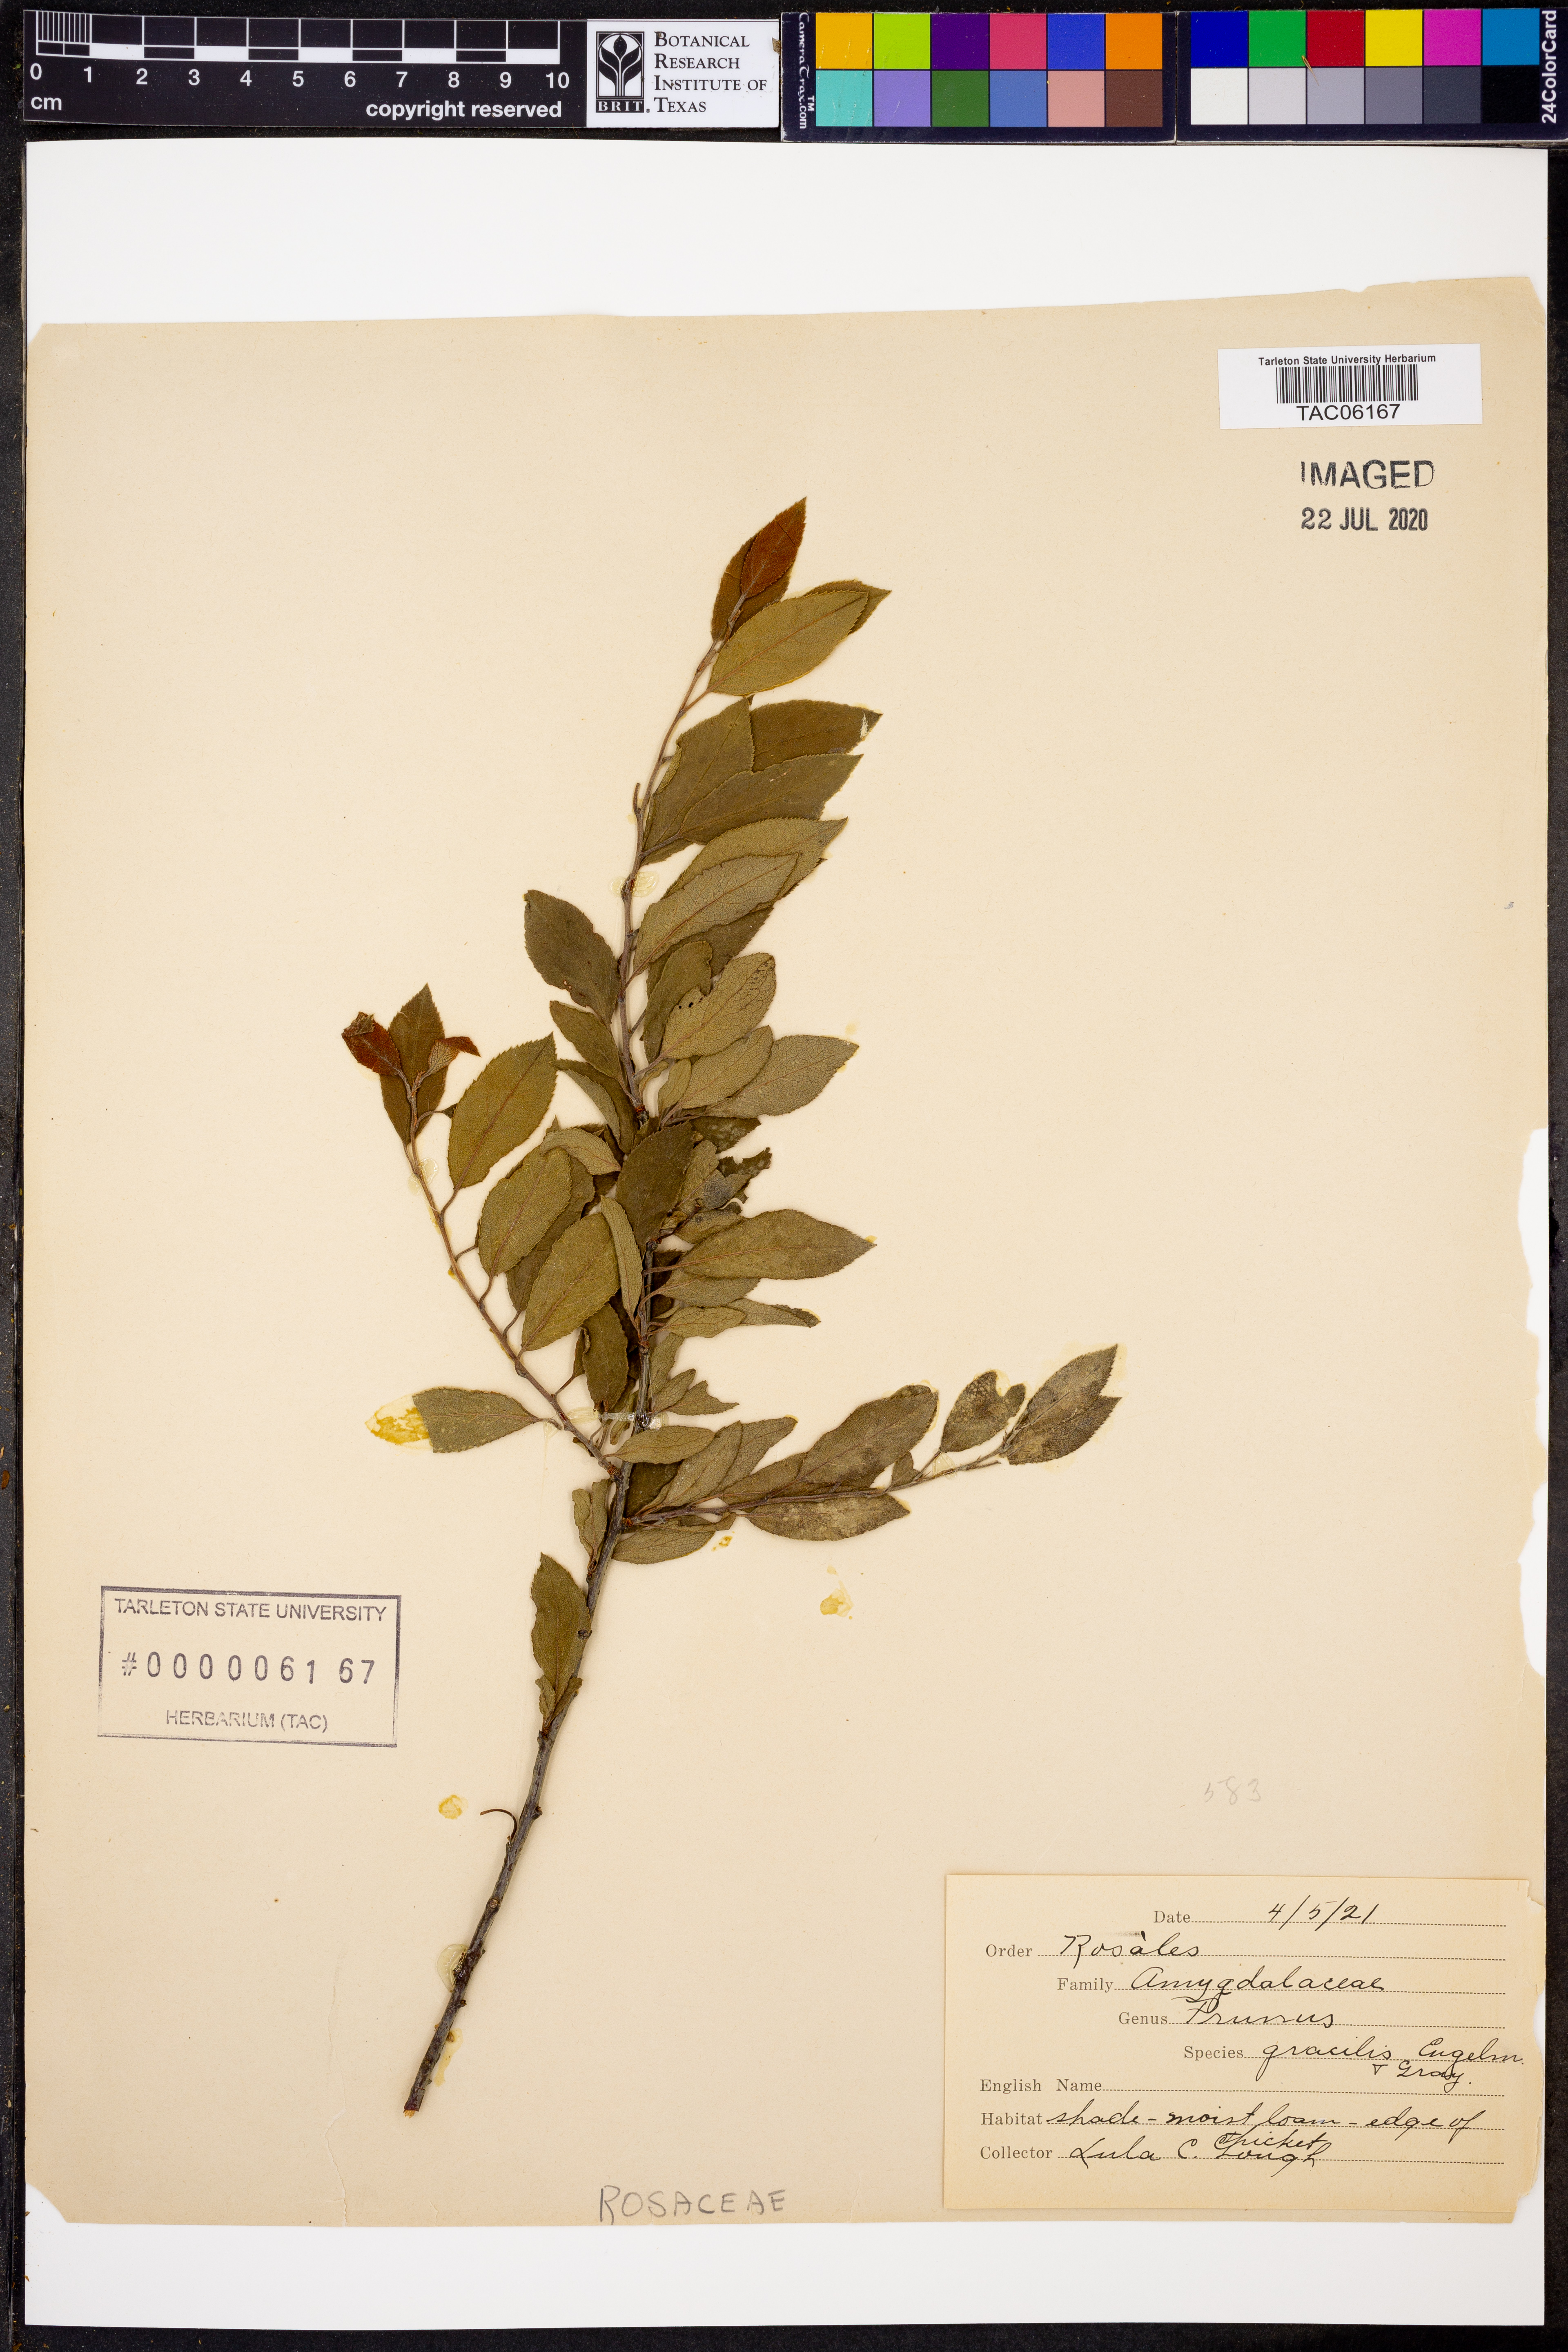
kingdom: Plantae
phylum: Tracheophyta
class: Magnoliopsida
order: Rosales
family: Rosaceae
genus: Prunus
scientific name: Prunus gracilis
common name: Oklahoma plum
